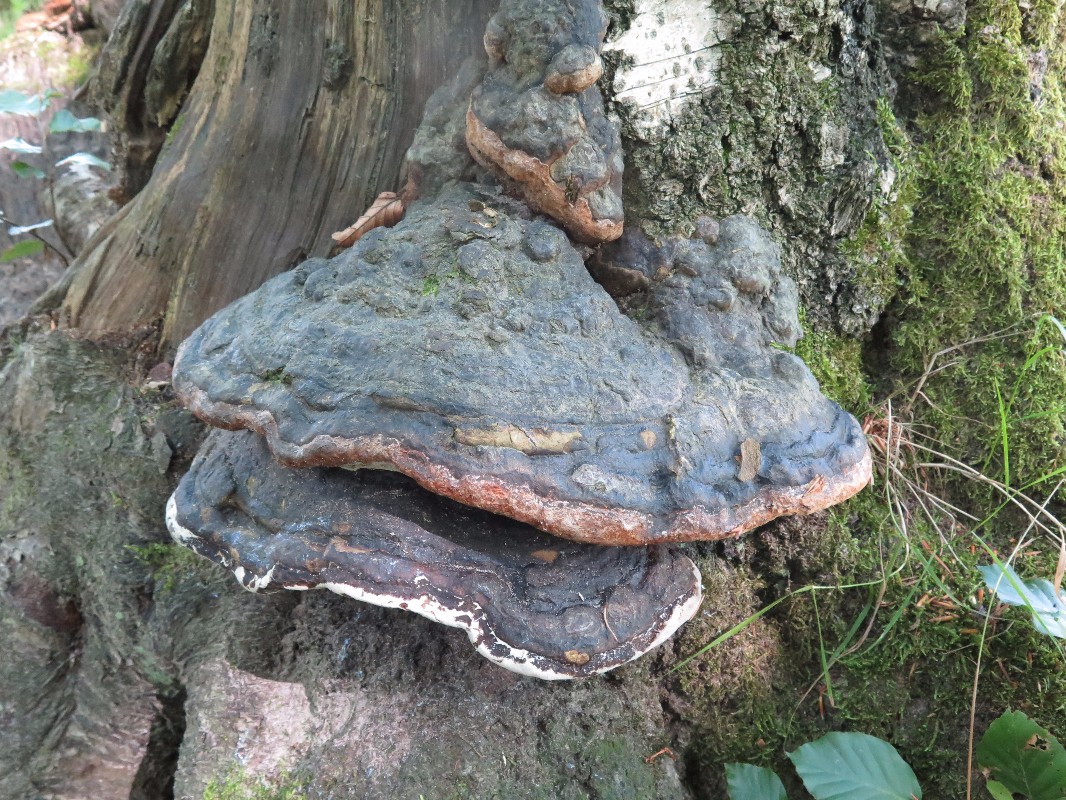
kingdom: Fungi
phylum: Basidiomycota
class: Agaricomycetes
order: Polyporales
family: Polyporaceae
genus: Fomes
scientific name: Fomes
